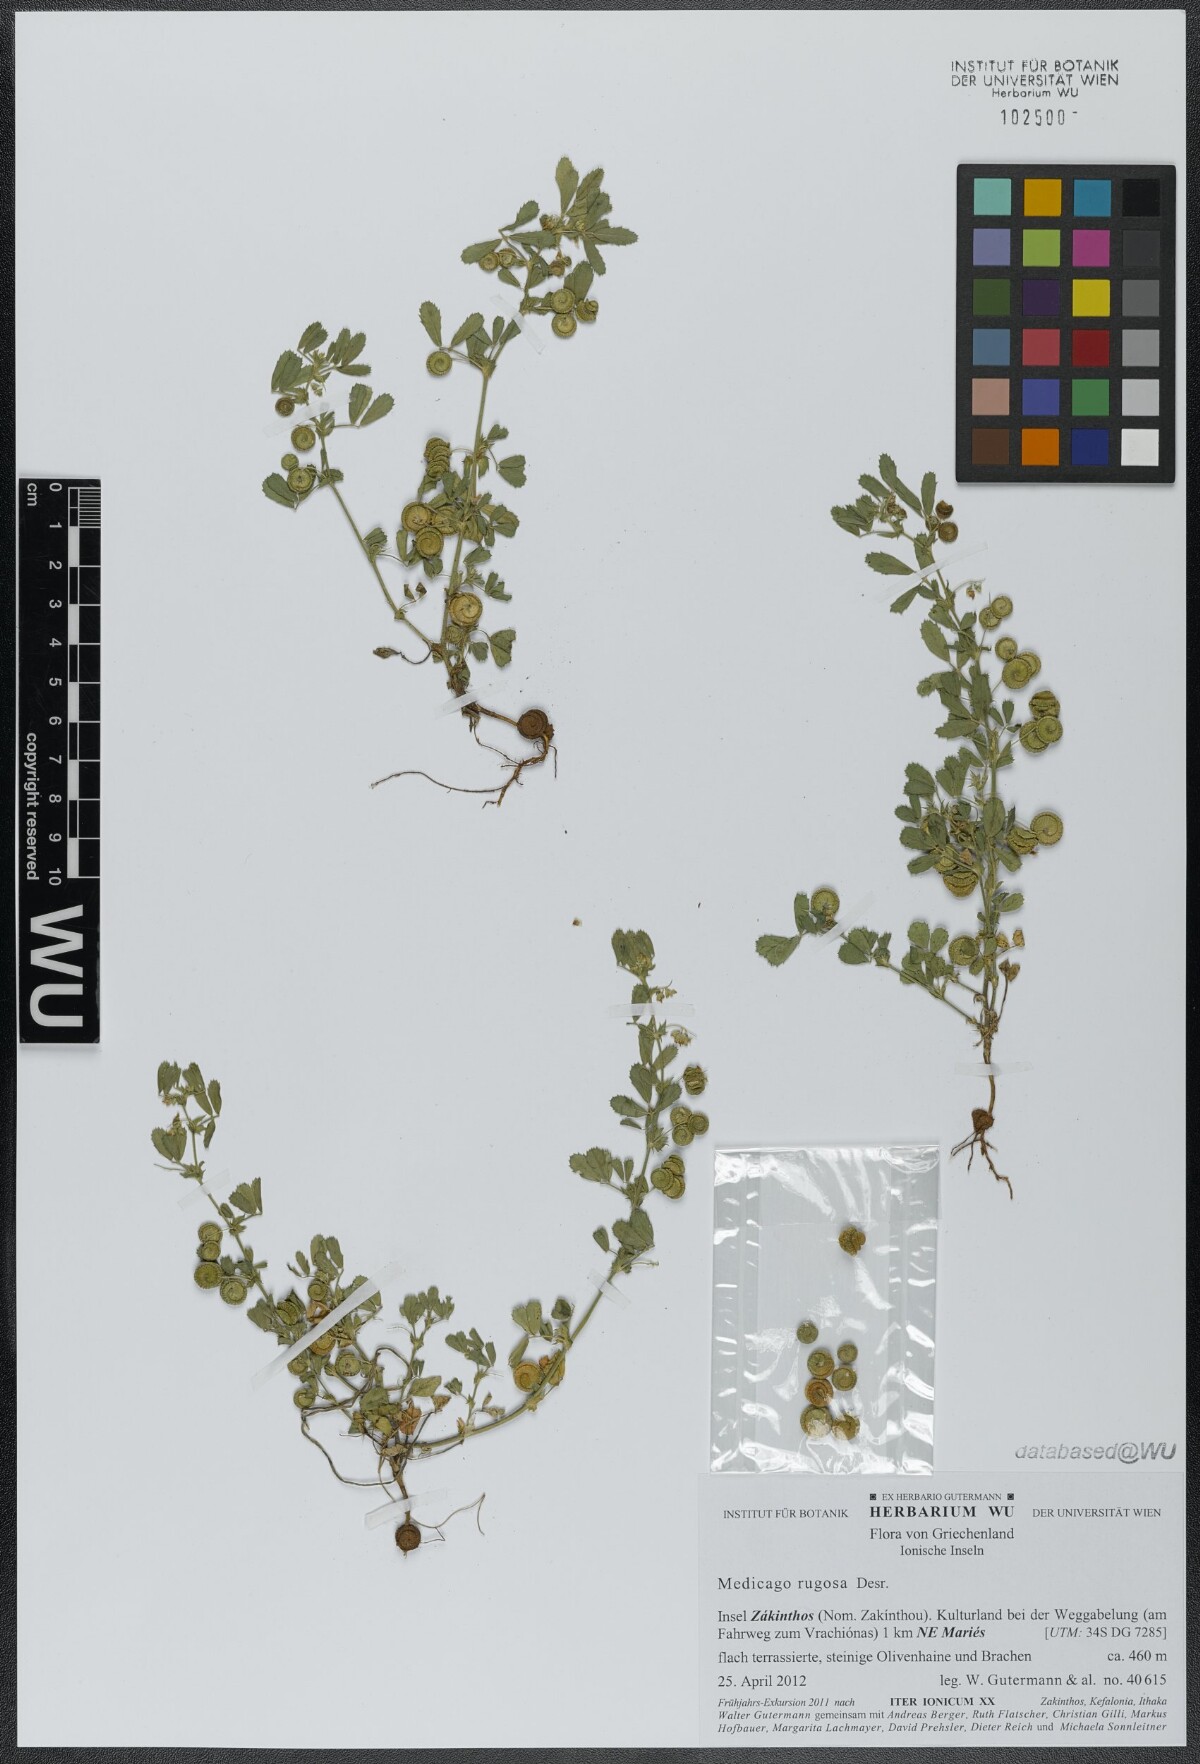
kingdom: Plantae
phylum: Tracheophyta
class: Magnoliopsida
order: Fabales
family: Fabaceae
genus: Medicago
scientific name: Medicago rugosa
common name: Gama medic
